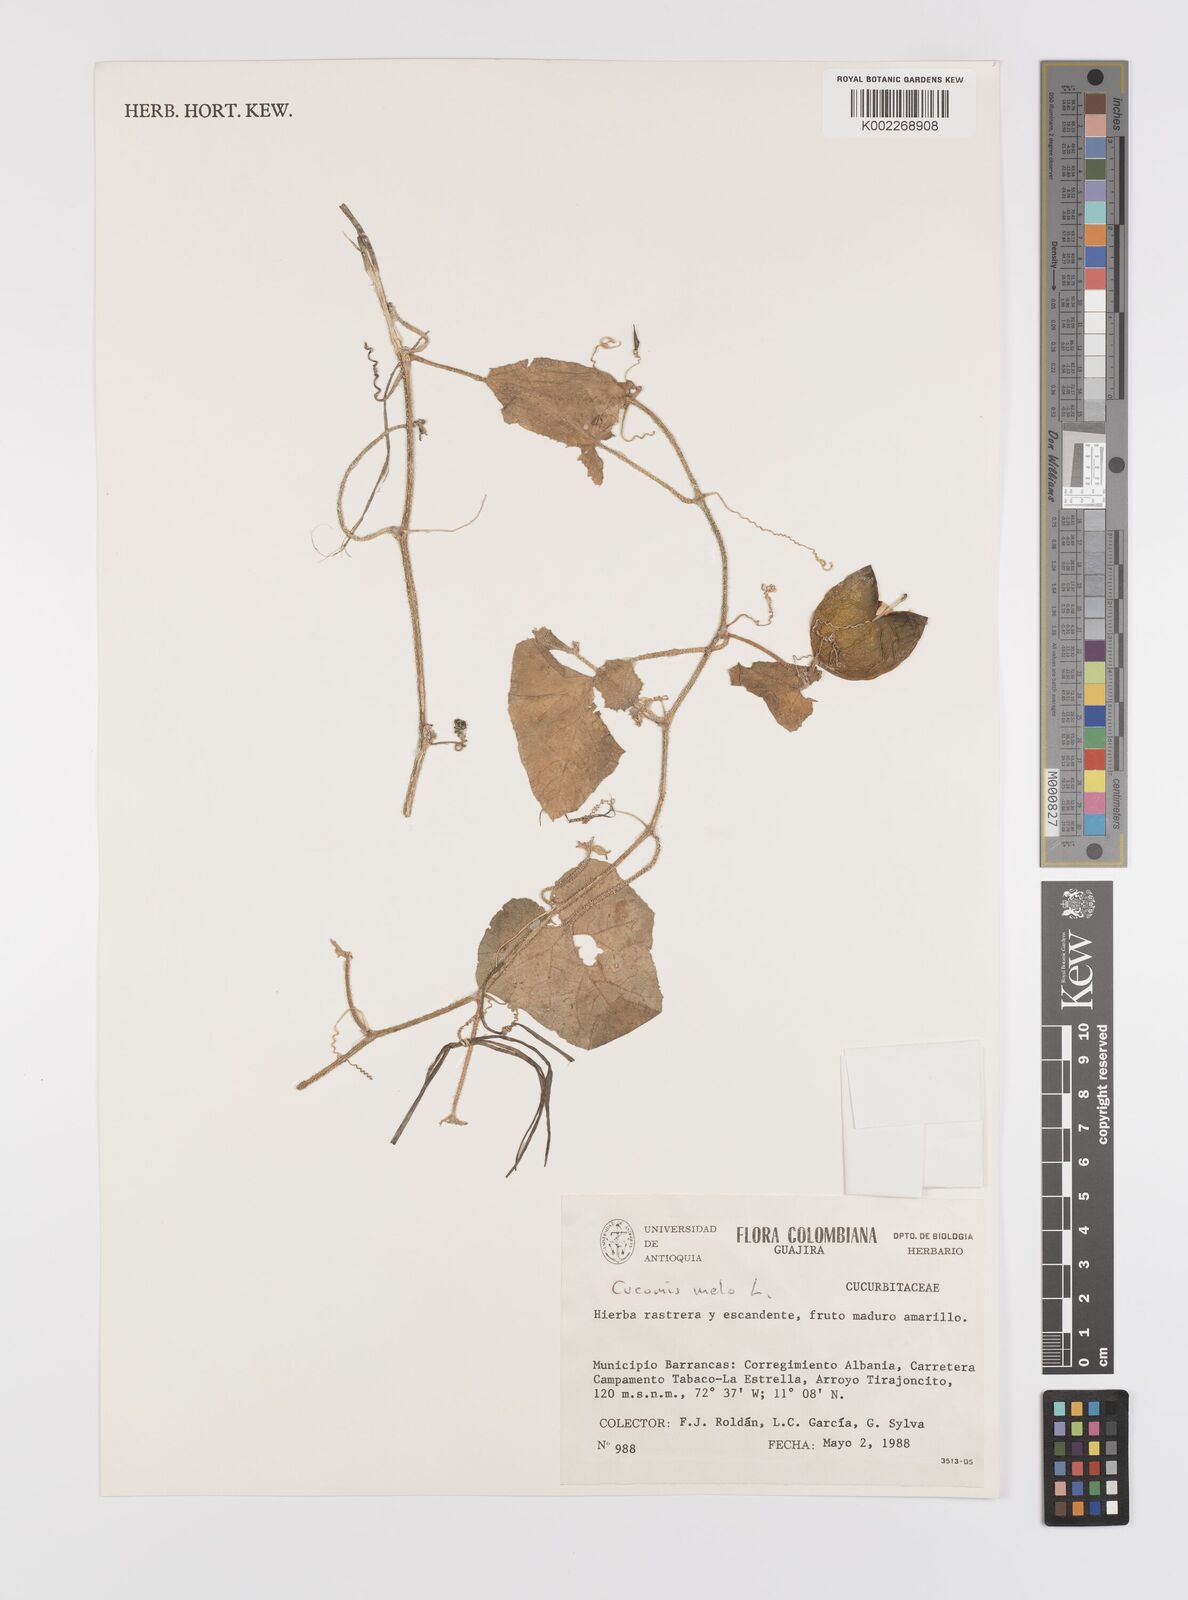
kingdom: Plantae
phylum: Tracheophyta
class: Magnoliopsida
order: Cucurbitales
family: Cucurbitaceae
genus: Cucumis
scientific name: Cucumis melo
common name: Melon
